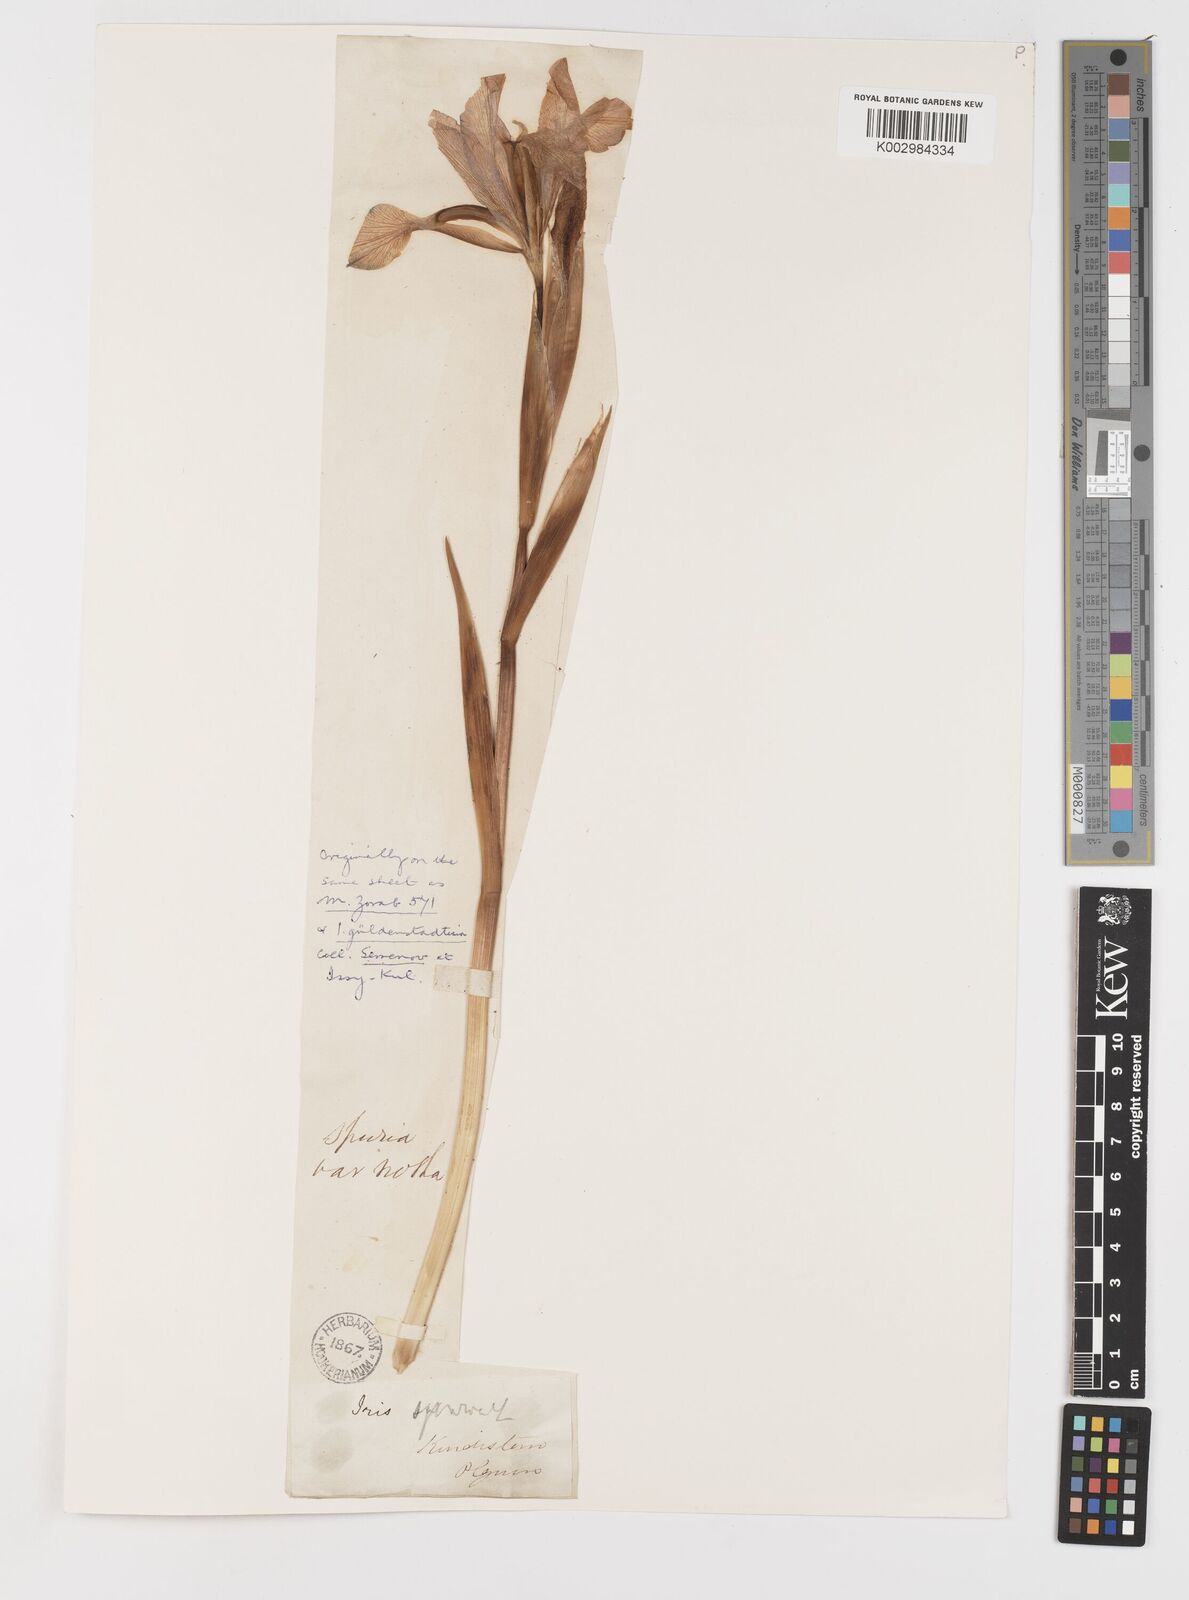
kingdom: Plantae
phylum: Tracheophyta
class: Liliopsida
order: Asparagales
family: Iridaceae
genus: Iris
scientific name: Iris spuria
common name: Blue iris
